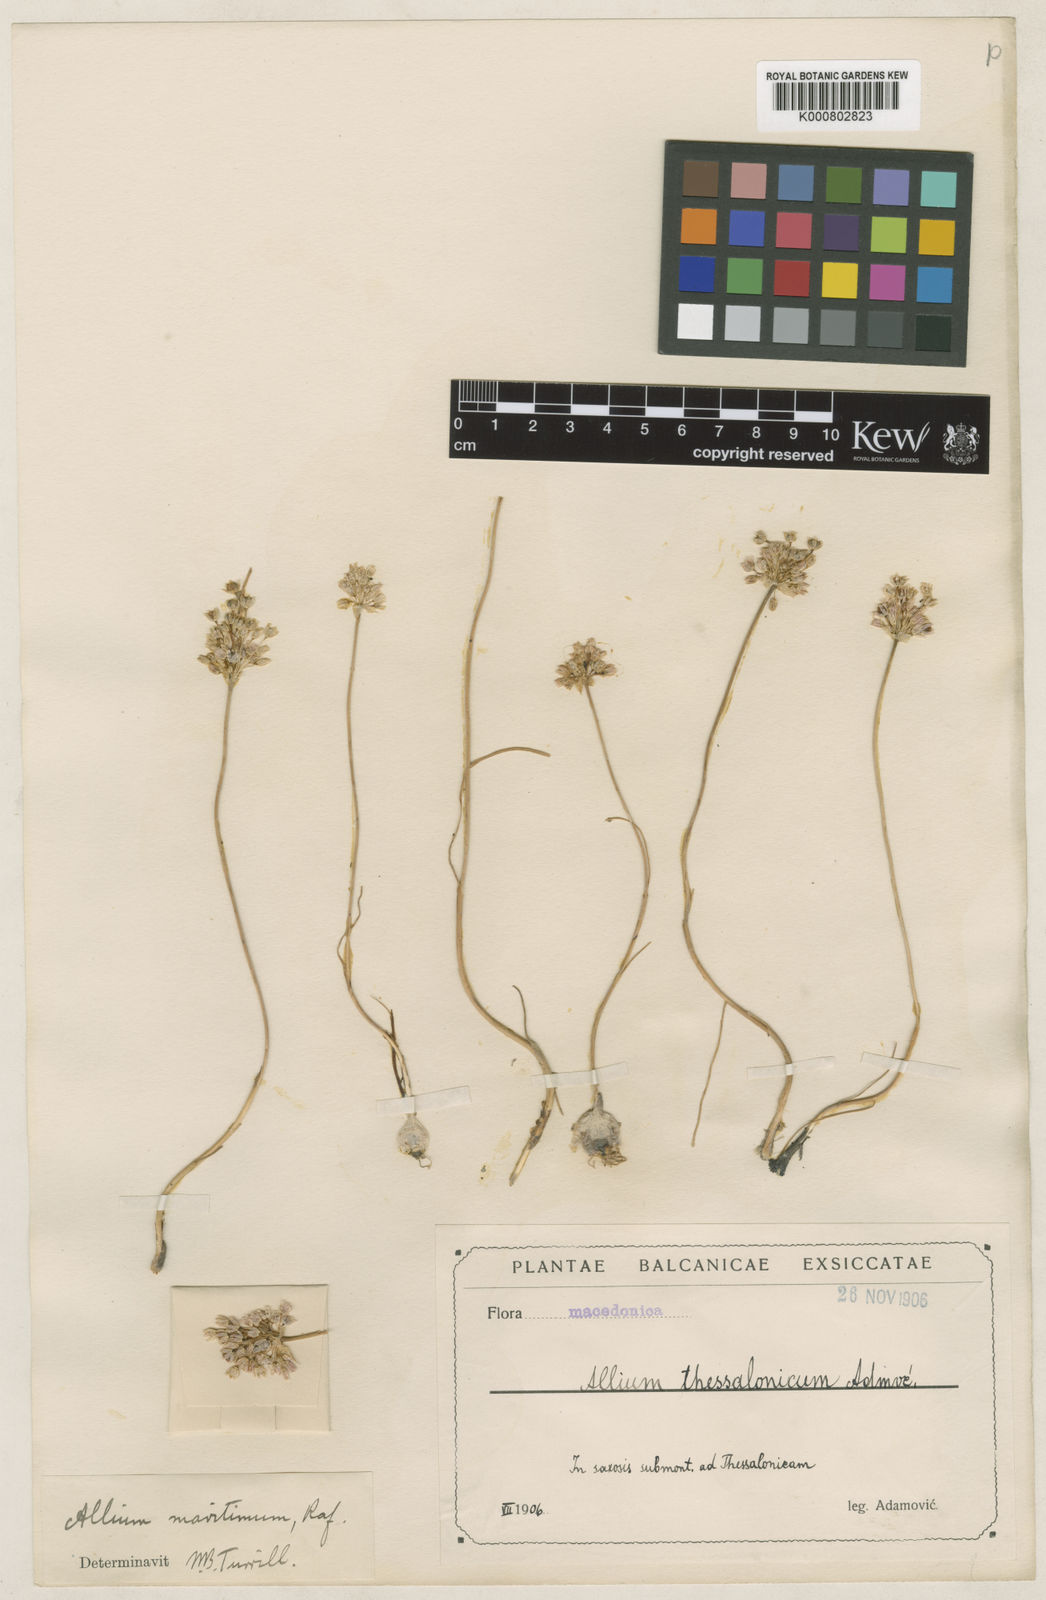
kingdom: Plantae
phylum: Tracheophyta
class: Liliopsida
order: Asparagales
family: Amaryllidaceae
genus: Allium
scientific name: Allium obtusiflorum
